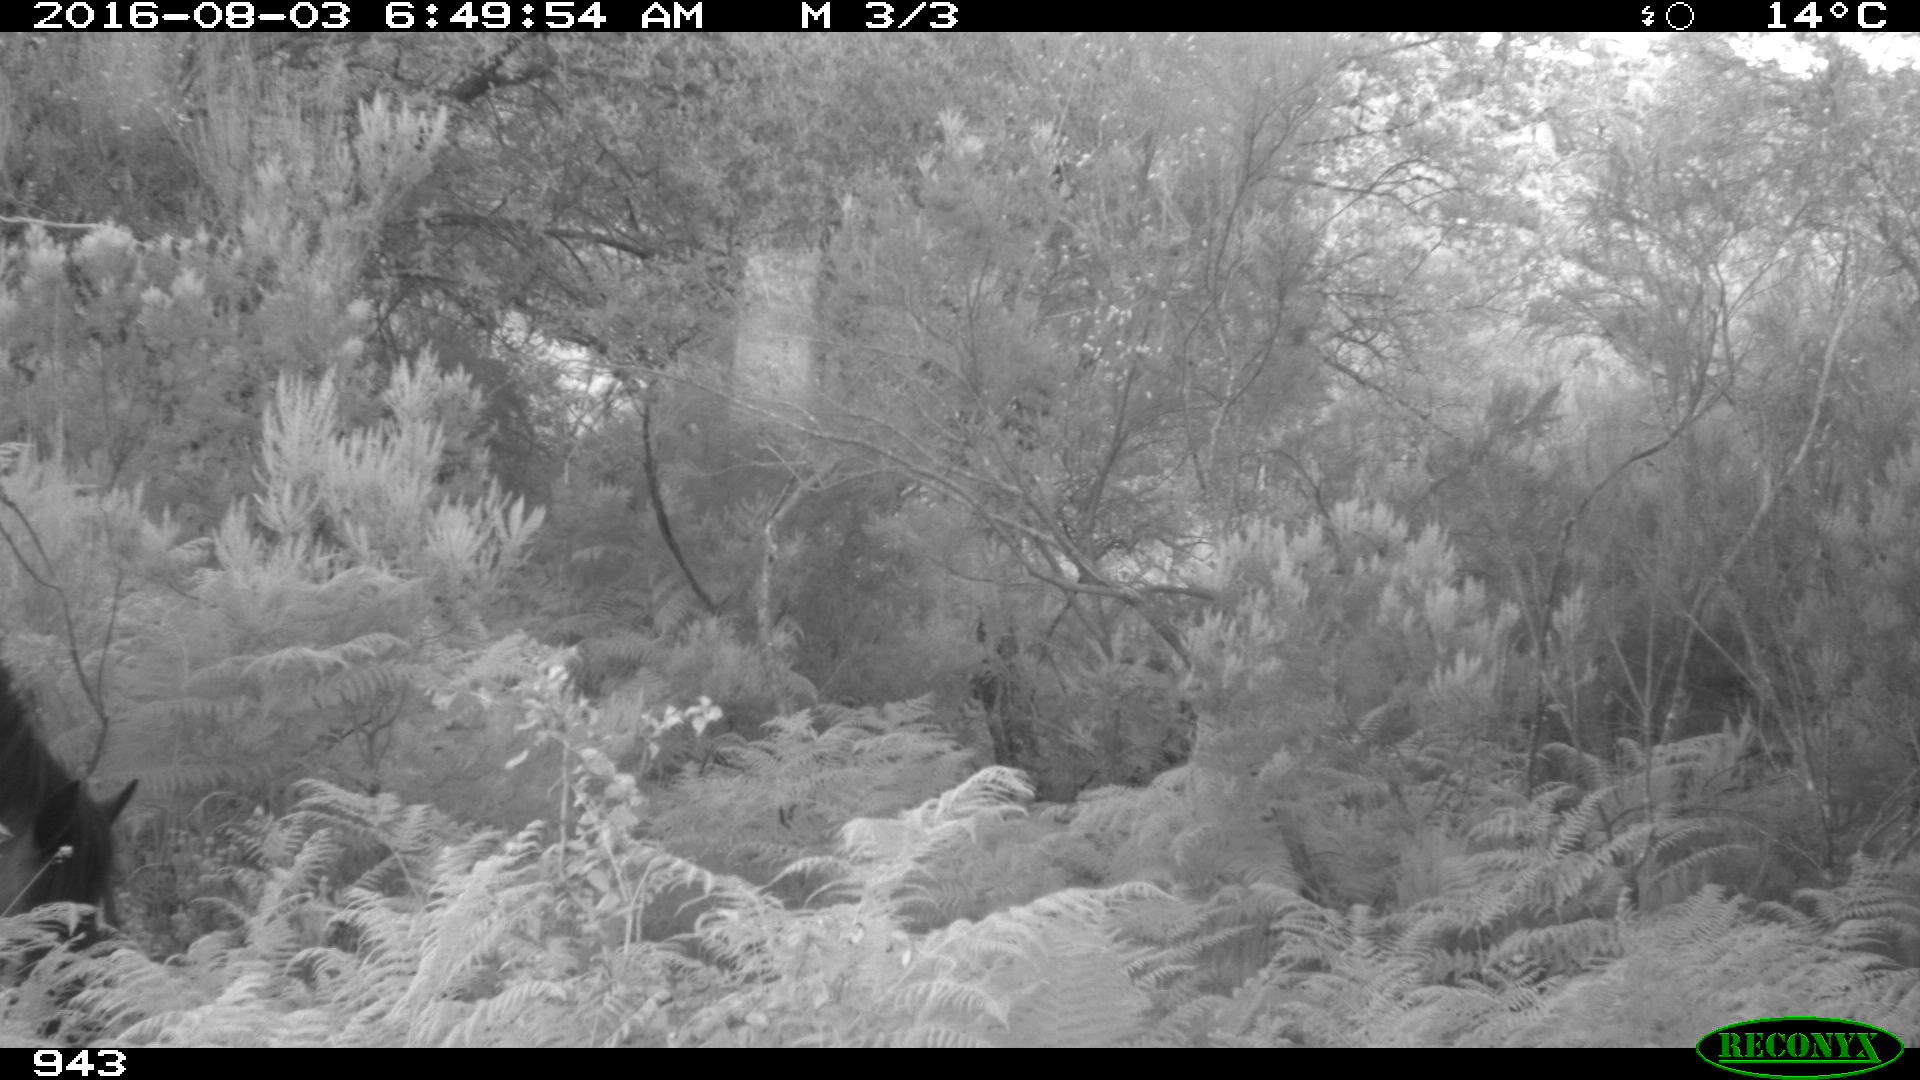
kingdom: Animalia
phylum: Chordata
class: Mammalia
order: Perissodactyla
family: Equidae
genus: Equus
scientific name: Equus caballus
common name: Horse
